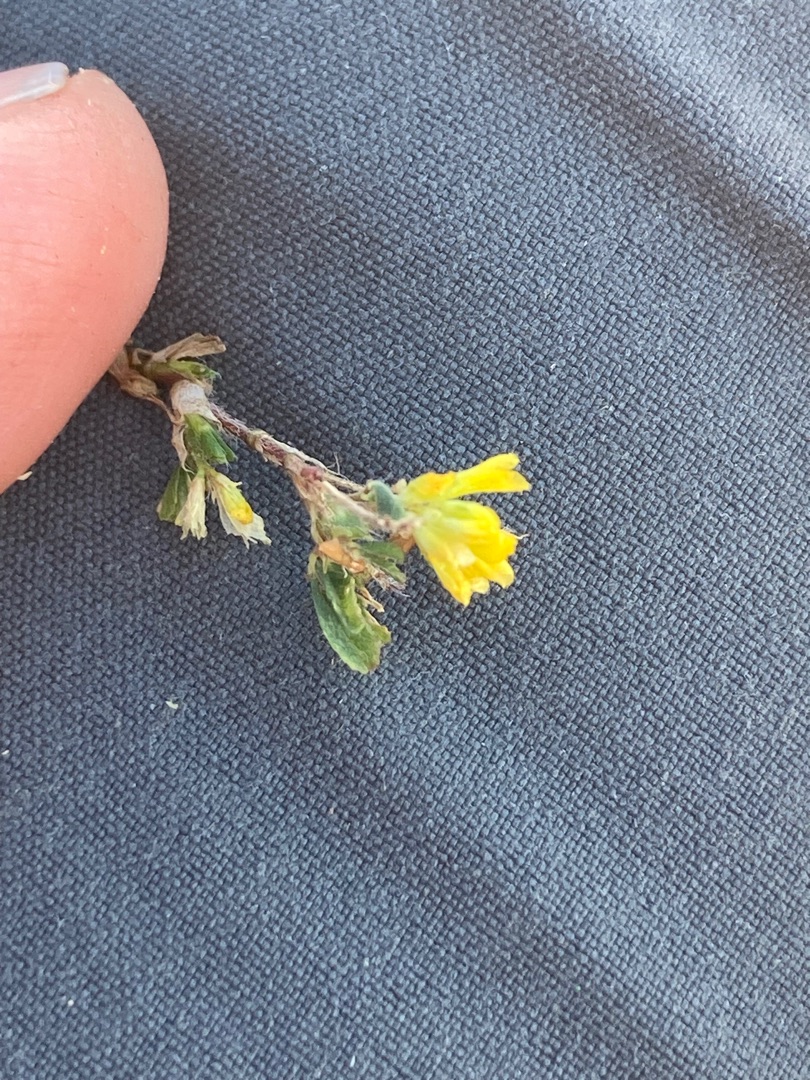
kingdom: Plantae
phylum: Tracheophyta
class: Magnoliopsida
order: Fabales
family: Fabaceae
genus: Medicago
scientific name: Medicago lupulina
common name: Humle-sneglebælg
